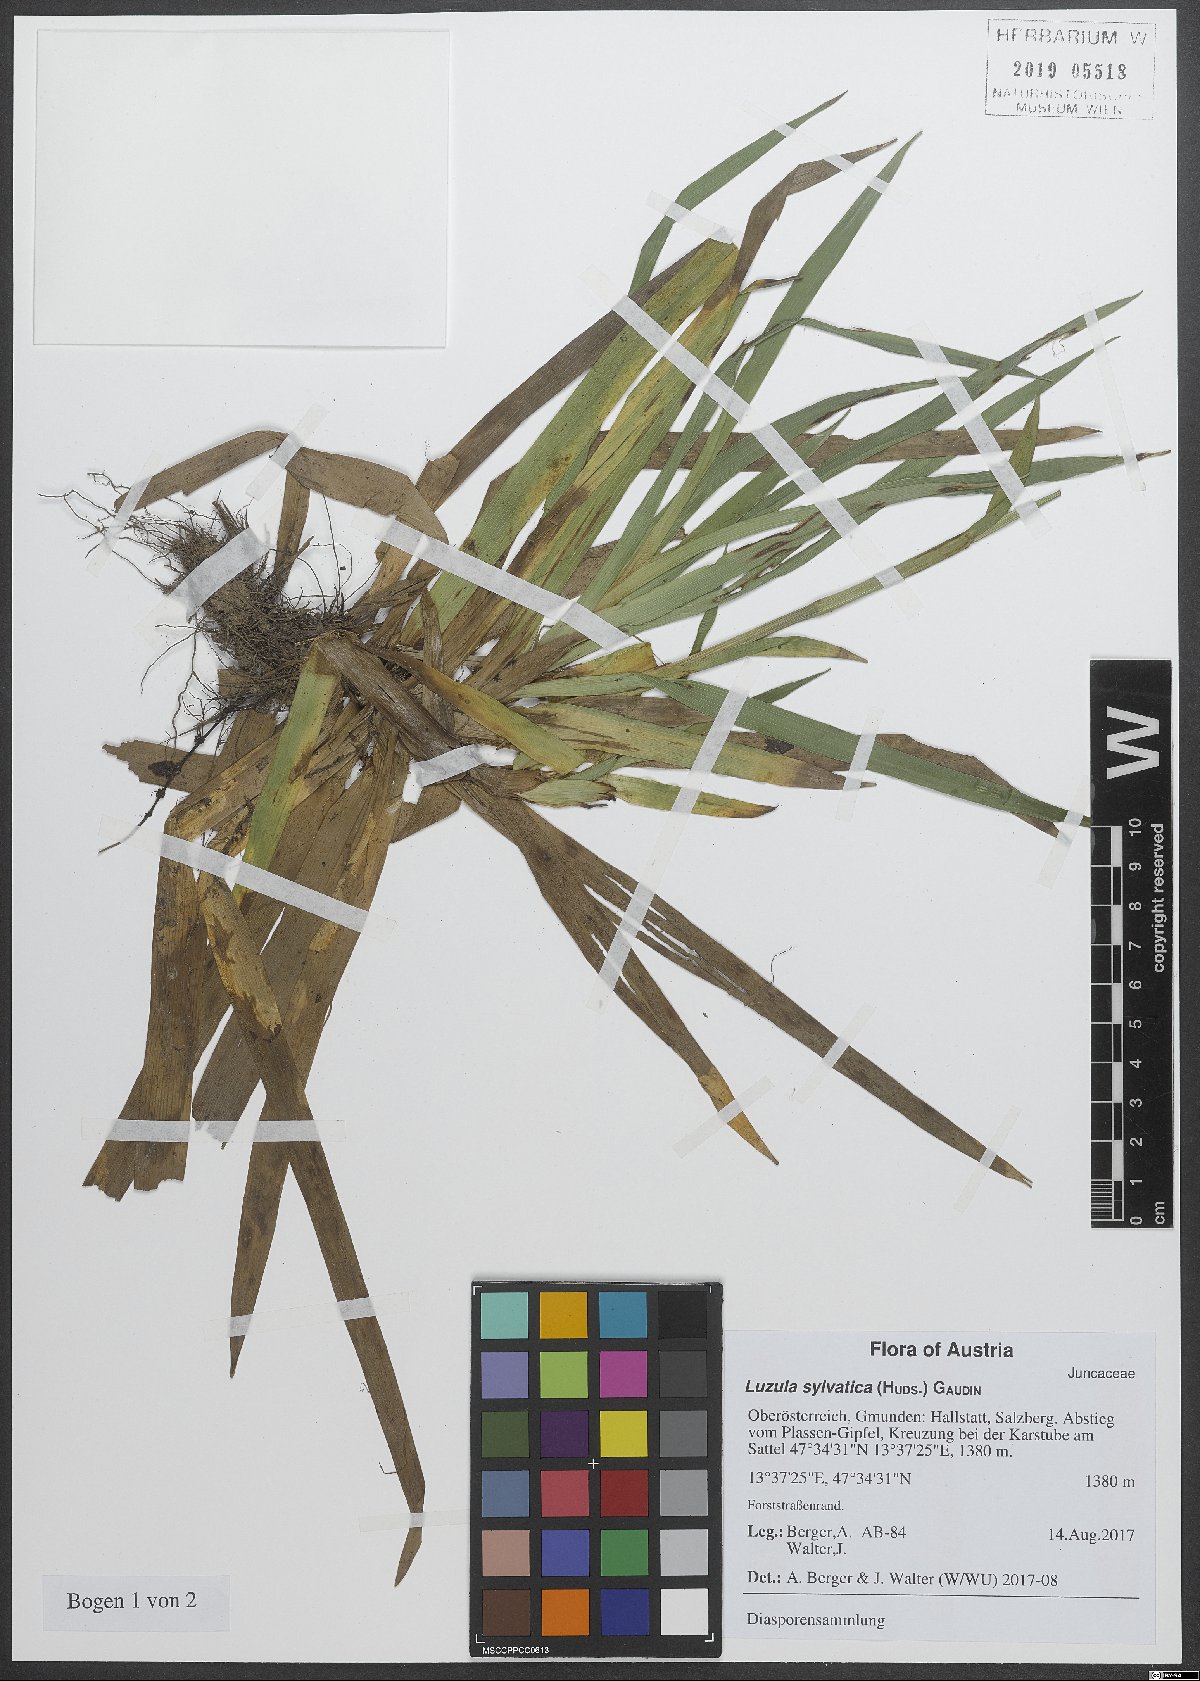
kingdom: Plantae
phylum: Tracheophyta
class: Liliopsida
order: Poales
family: Juncaceae
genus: Luzula
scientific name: Luzula sylvatica
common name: Great wood-rush
